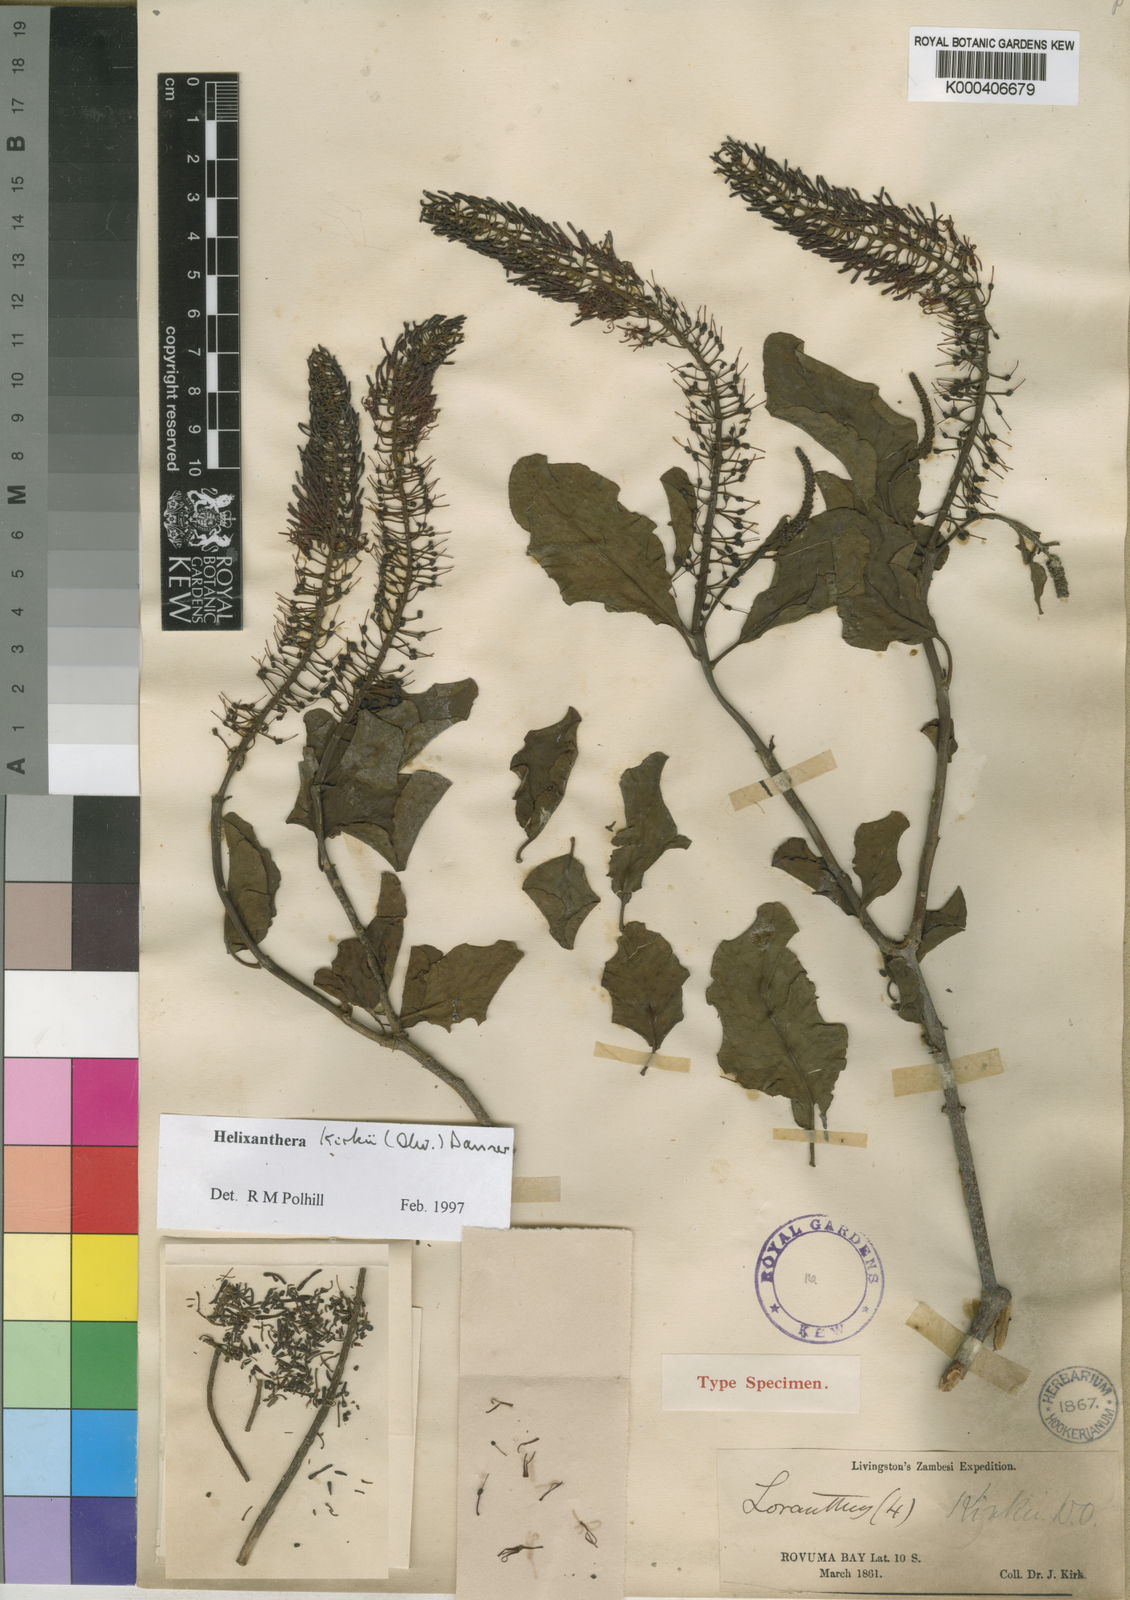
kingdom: Plantae
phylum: Tracheophyta
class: Magnoliopsida
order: Santalales
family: Loranthaceae
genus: Helixanthera
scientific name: Helixanthera kirkii
